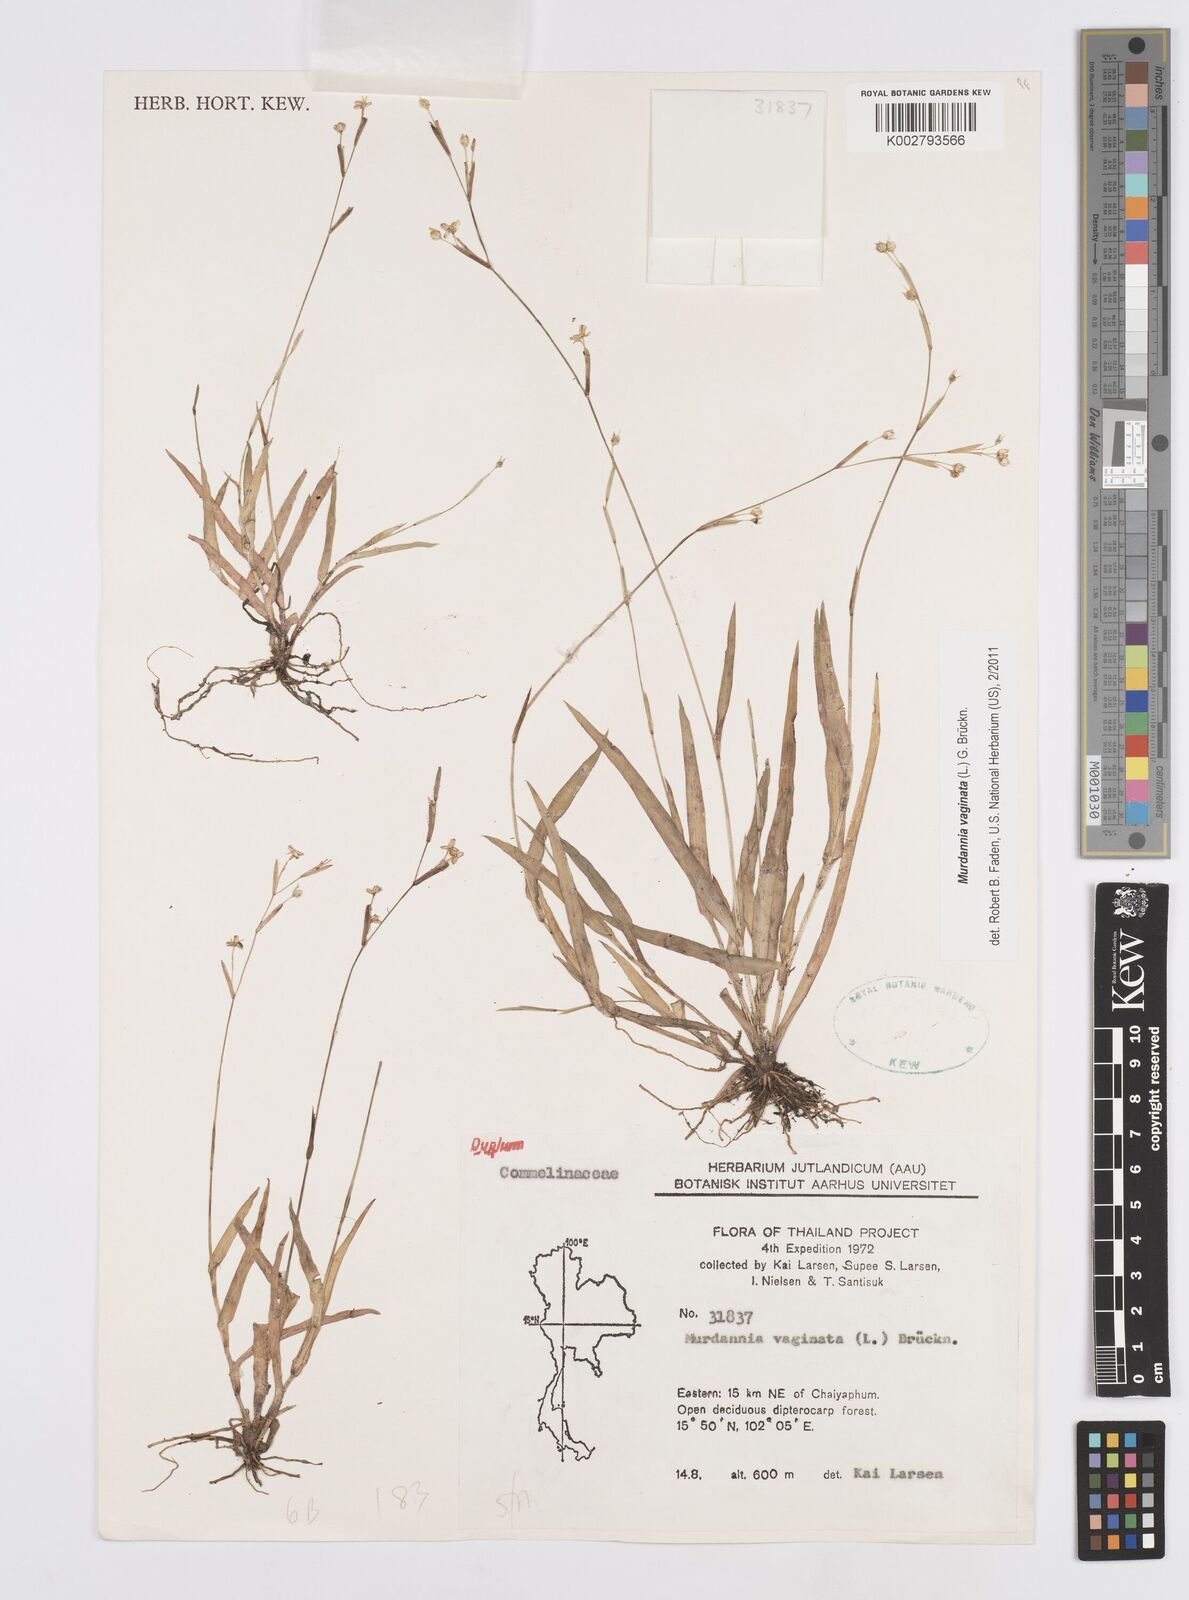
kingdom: Plantae
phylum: Tracheophyta
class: Liliopsida
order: Commelinales
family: Commelinaceae
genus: Murdannia
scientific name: Murdannia vaginata
